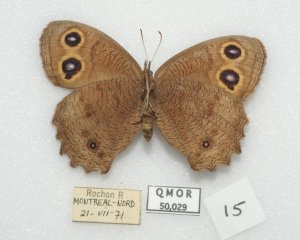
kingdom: Animalia
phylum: Arthropoda
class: Insecta
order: Lepidoptera
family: Nymphalidae
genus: Cercyonis
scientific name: Cercyonis pegala
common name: Common Wood-Nymph
